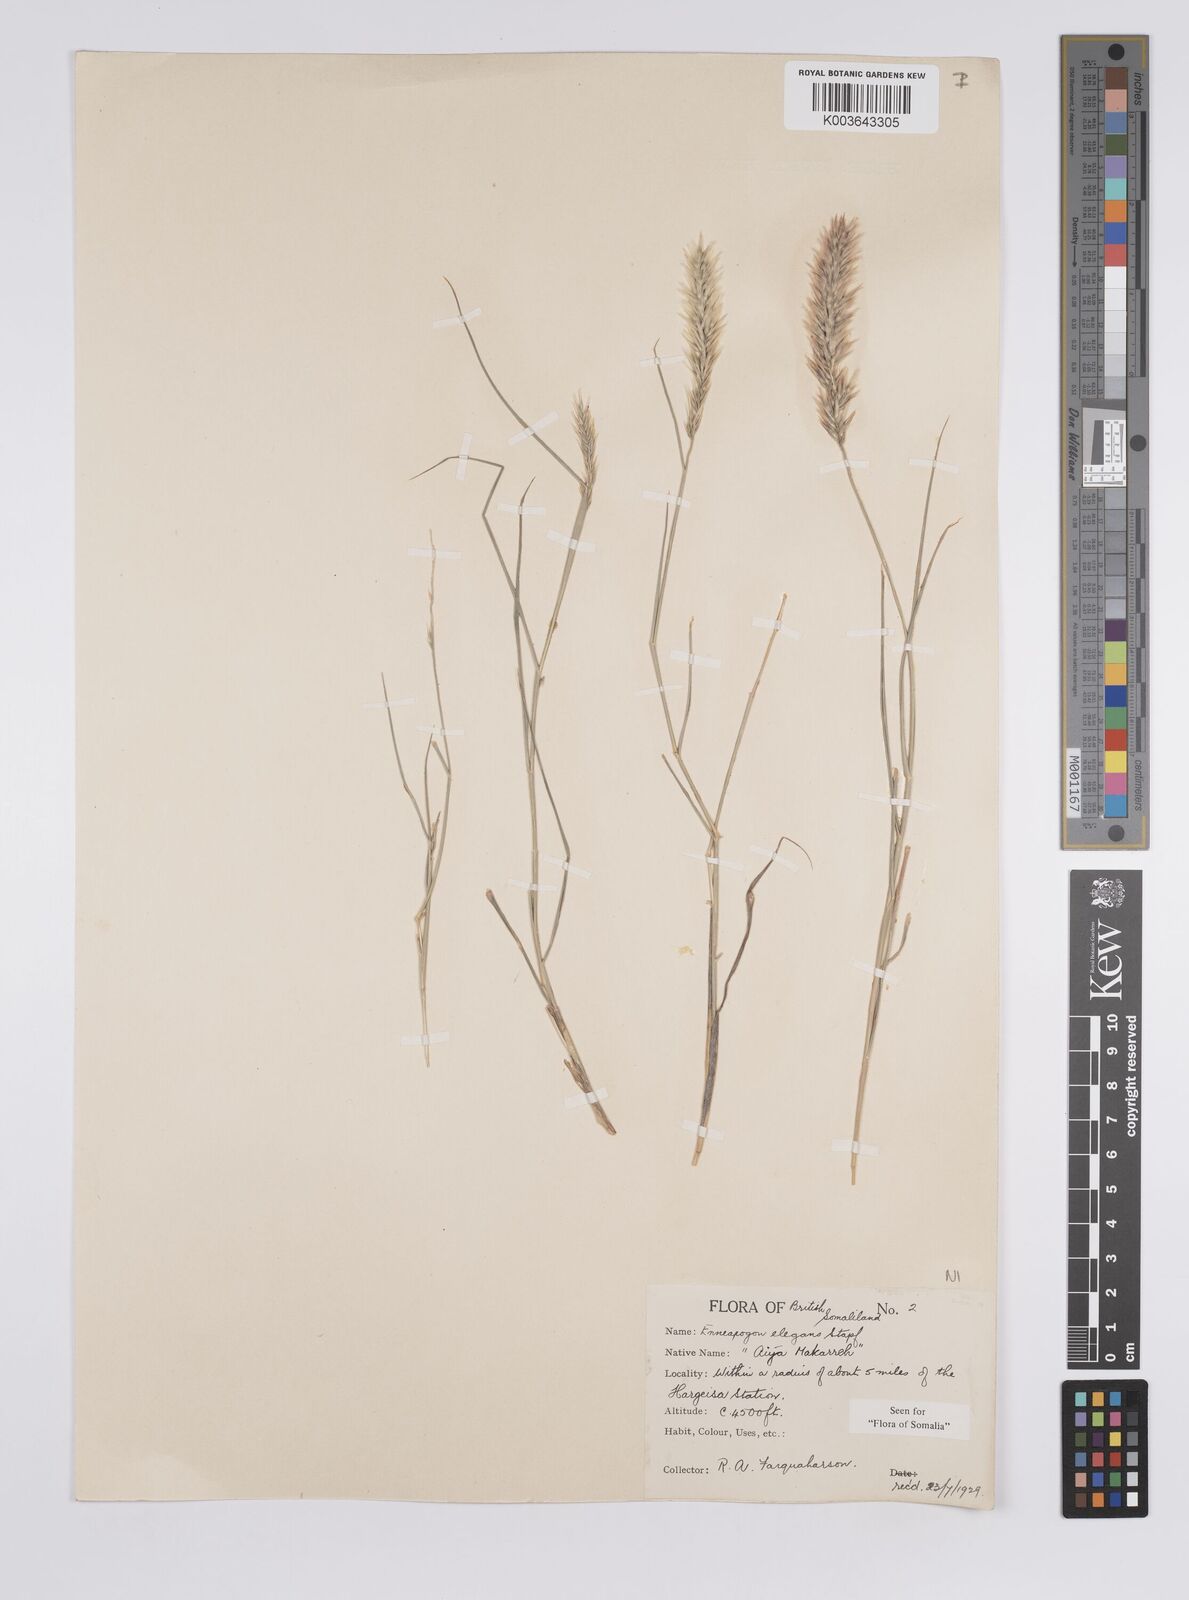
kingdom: Plantae
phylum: Tracheophyta
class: Liliopsida
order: Poales
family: Poaceae
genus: Enneapogon
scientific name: Enneapogon persicus
